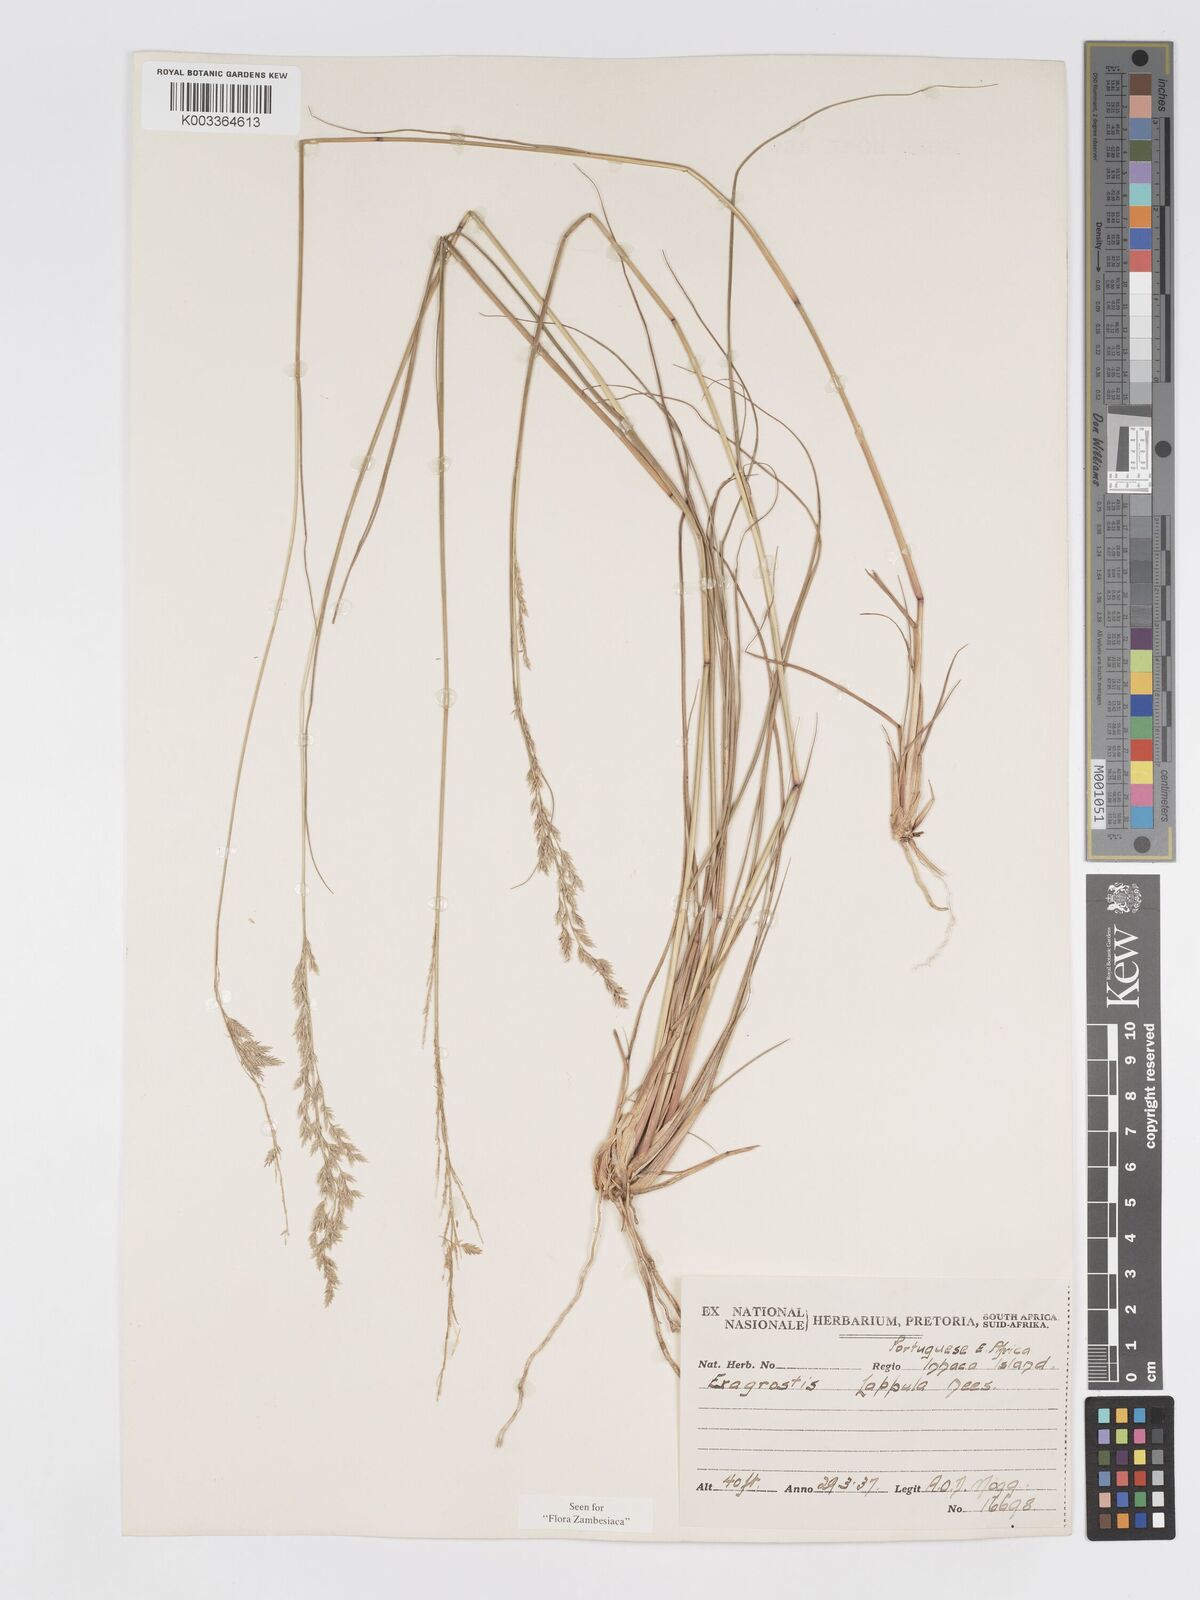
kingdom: Plantae
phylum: Tracheophyta
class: Liliopsida
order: Poales
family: Poaceae
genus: Eragrostis
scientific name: Eragrostis lappula
